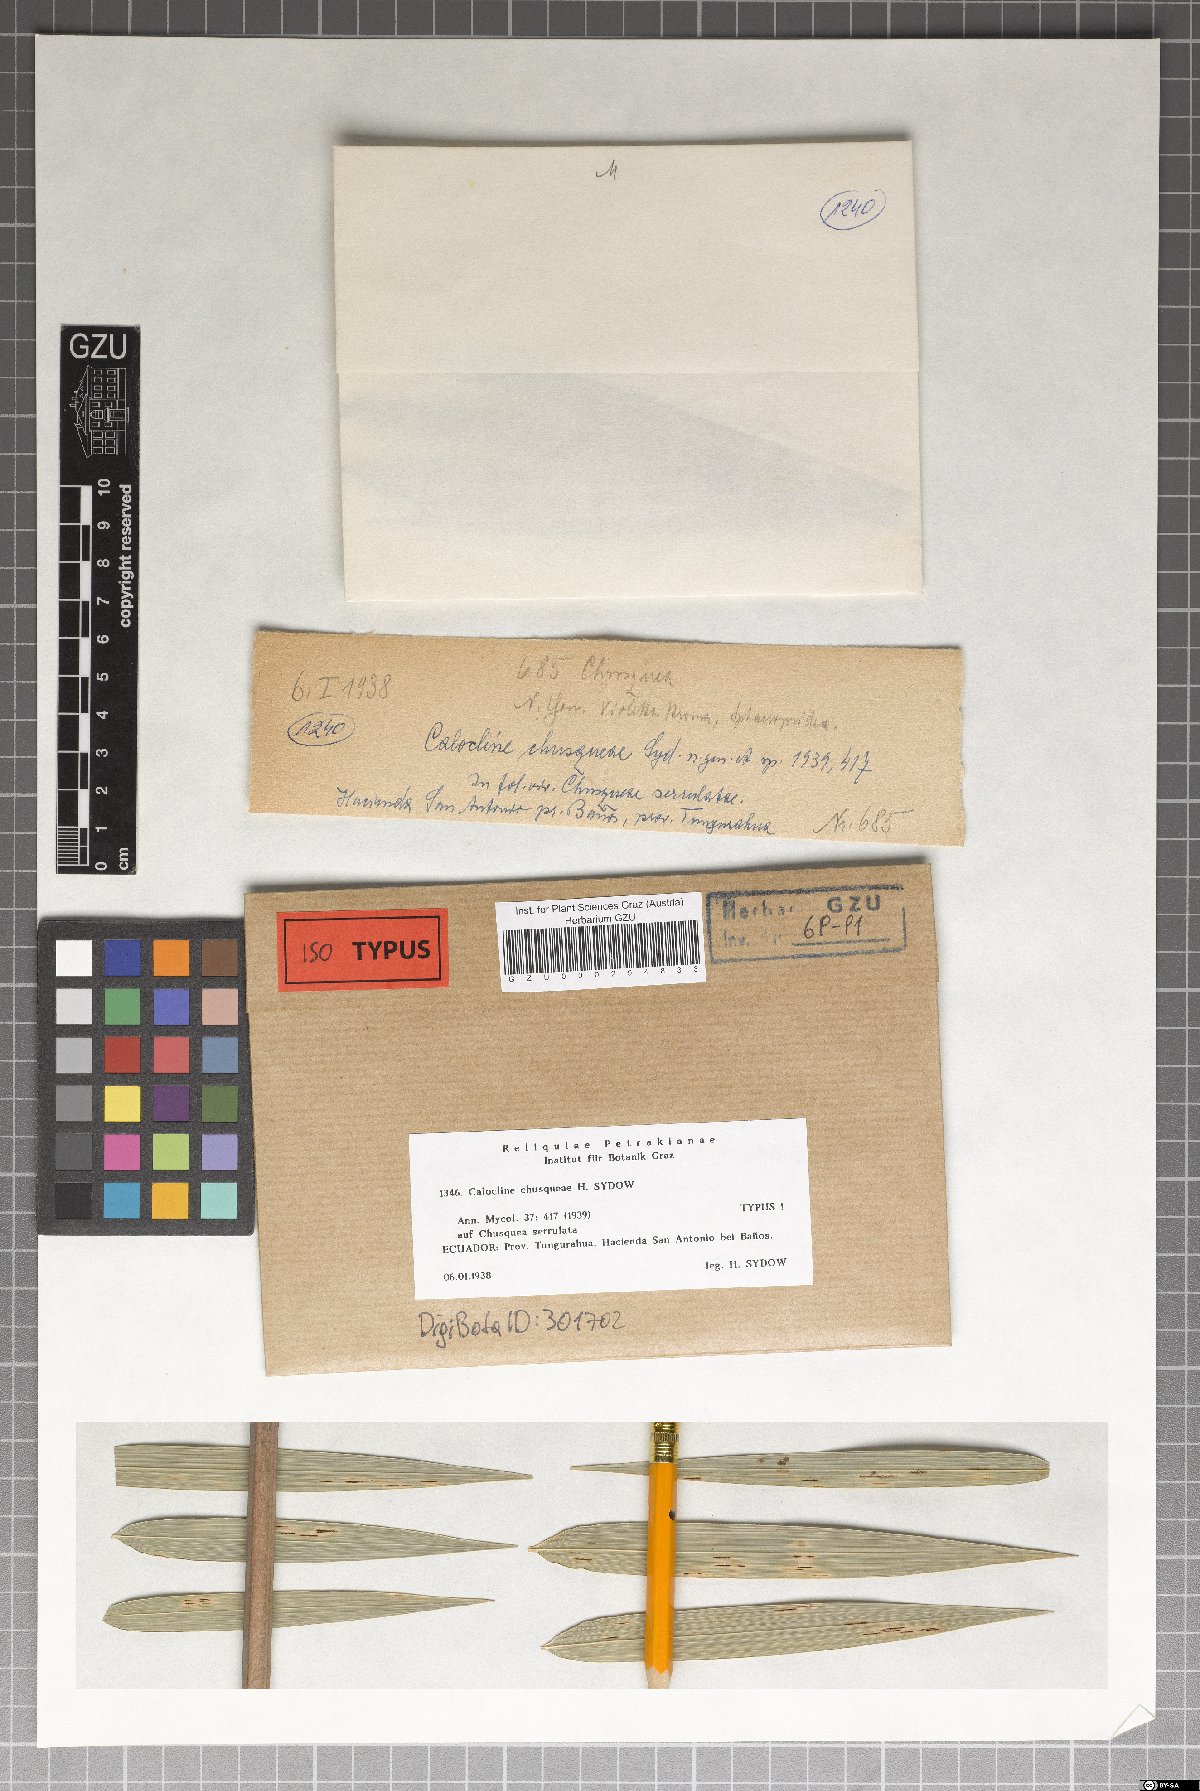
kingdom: Fungi
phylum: Ascomycota
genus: Calocline
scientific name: Calocline chusqueae
